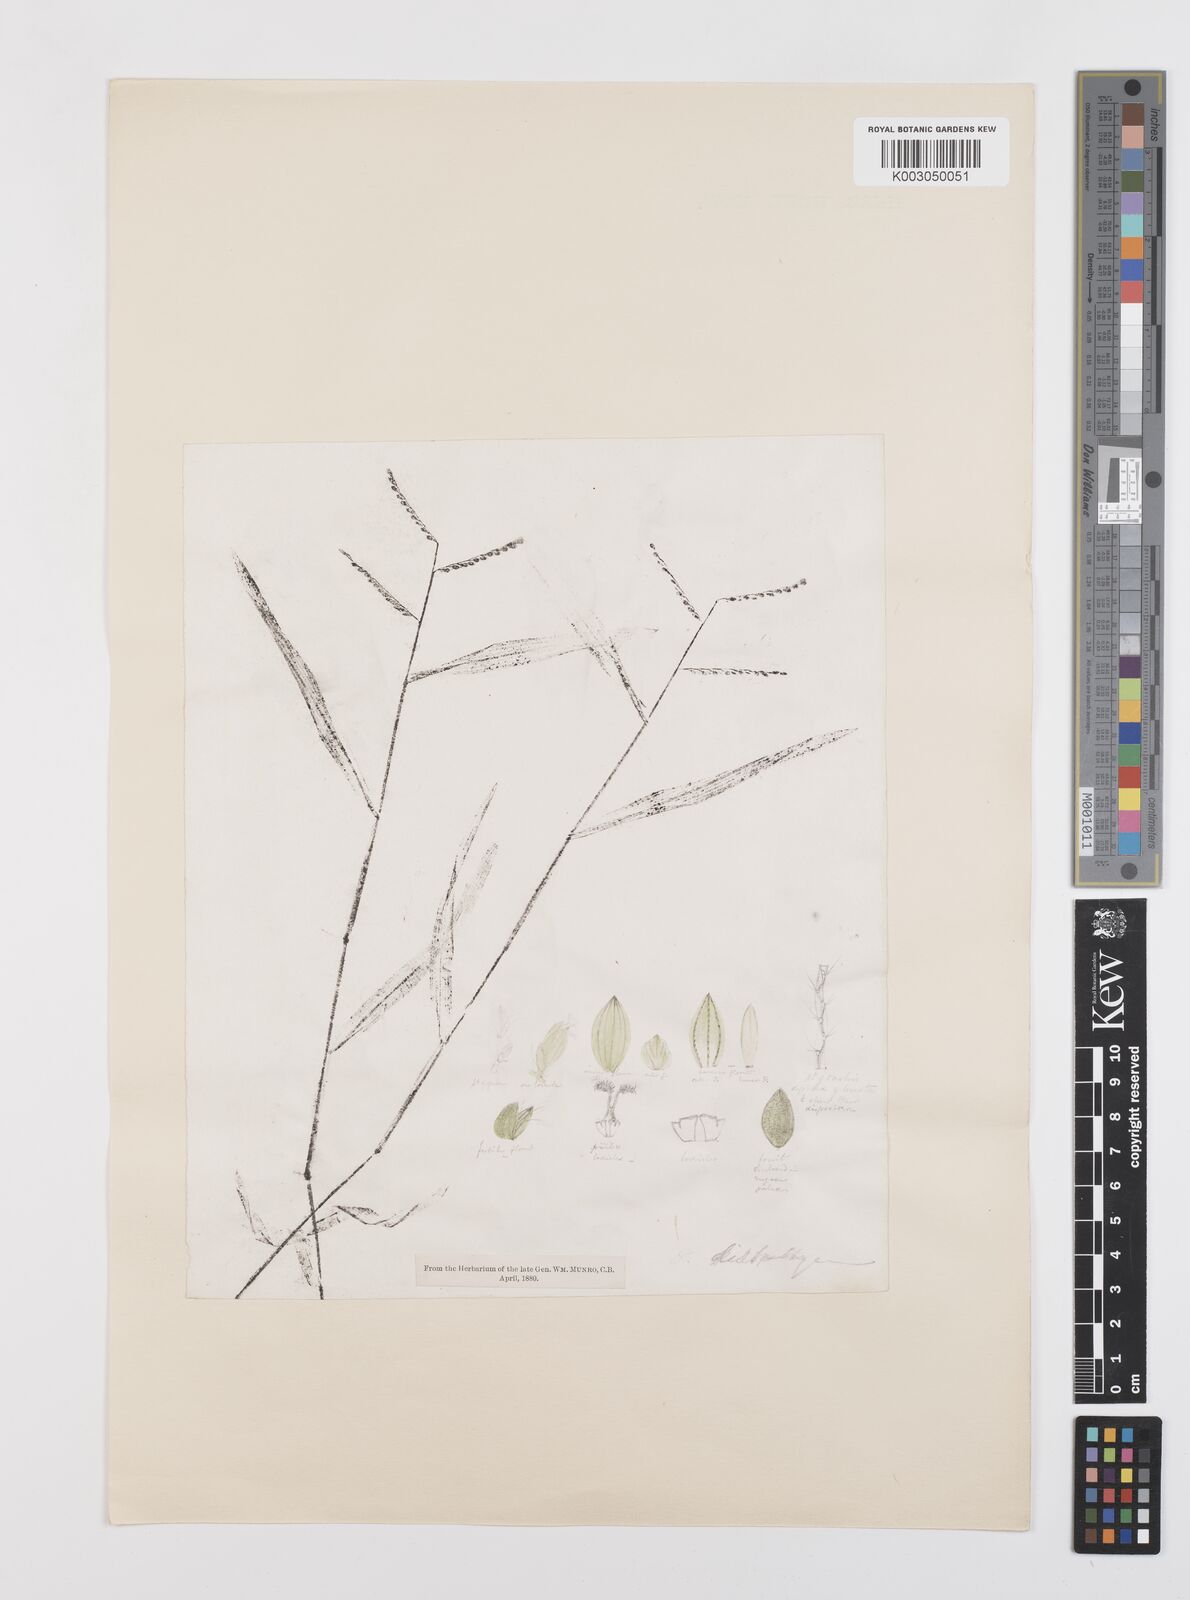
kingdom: Plantae
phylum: Tracheophyta
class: Liliopsida
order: Poales
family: Poaceae
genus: Urochloa
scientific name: Urochloa distachyos
